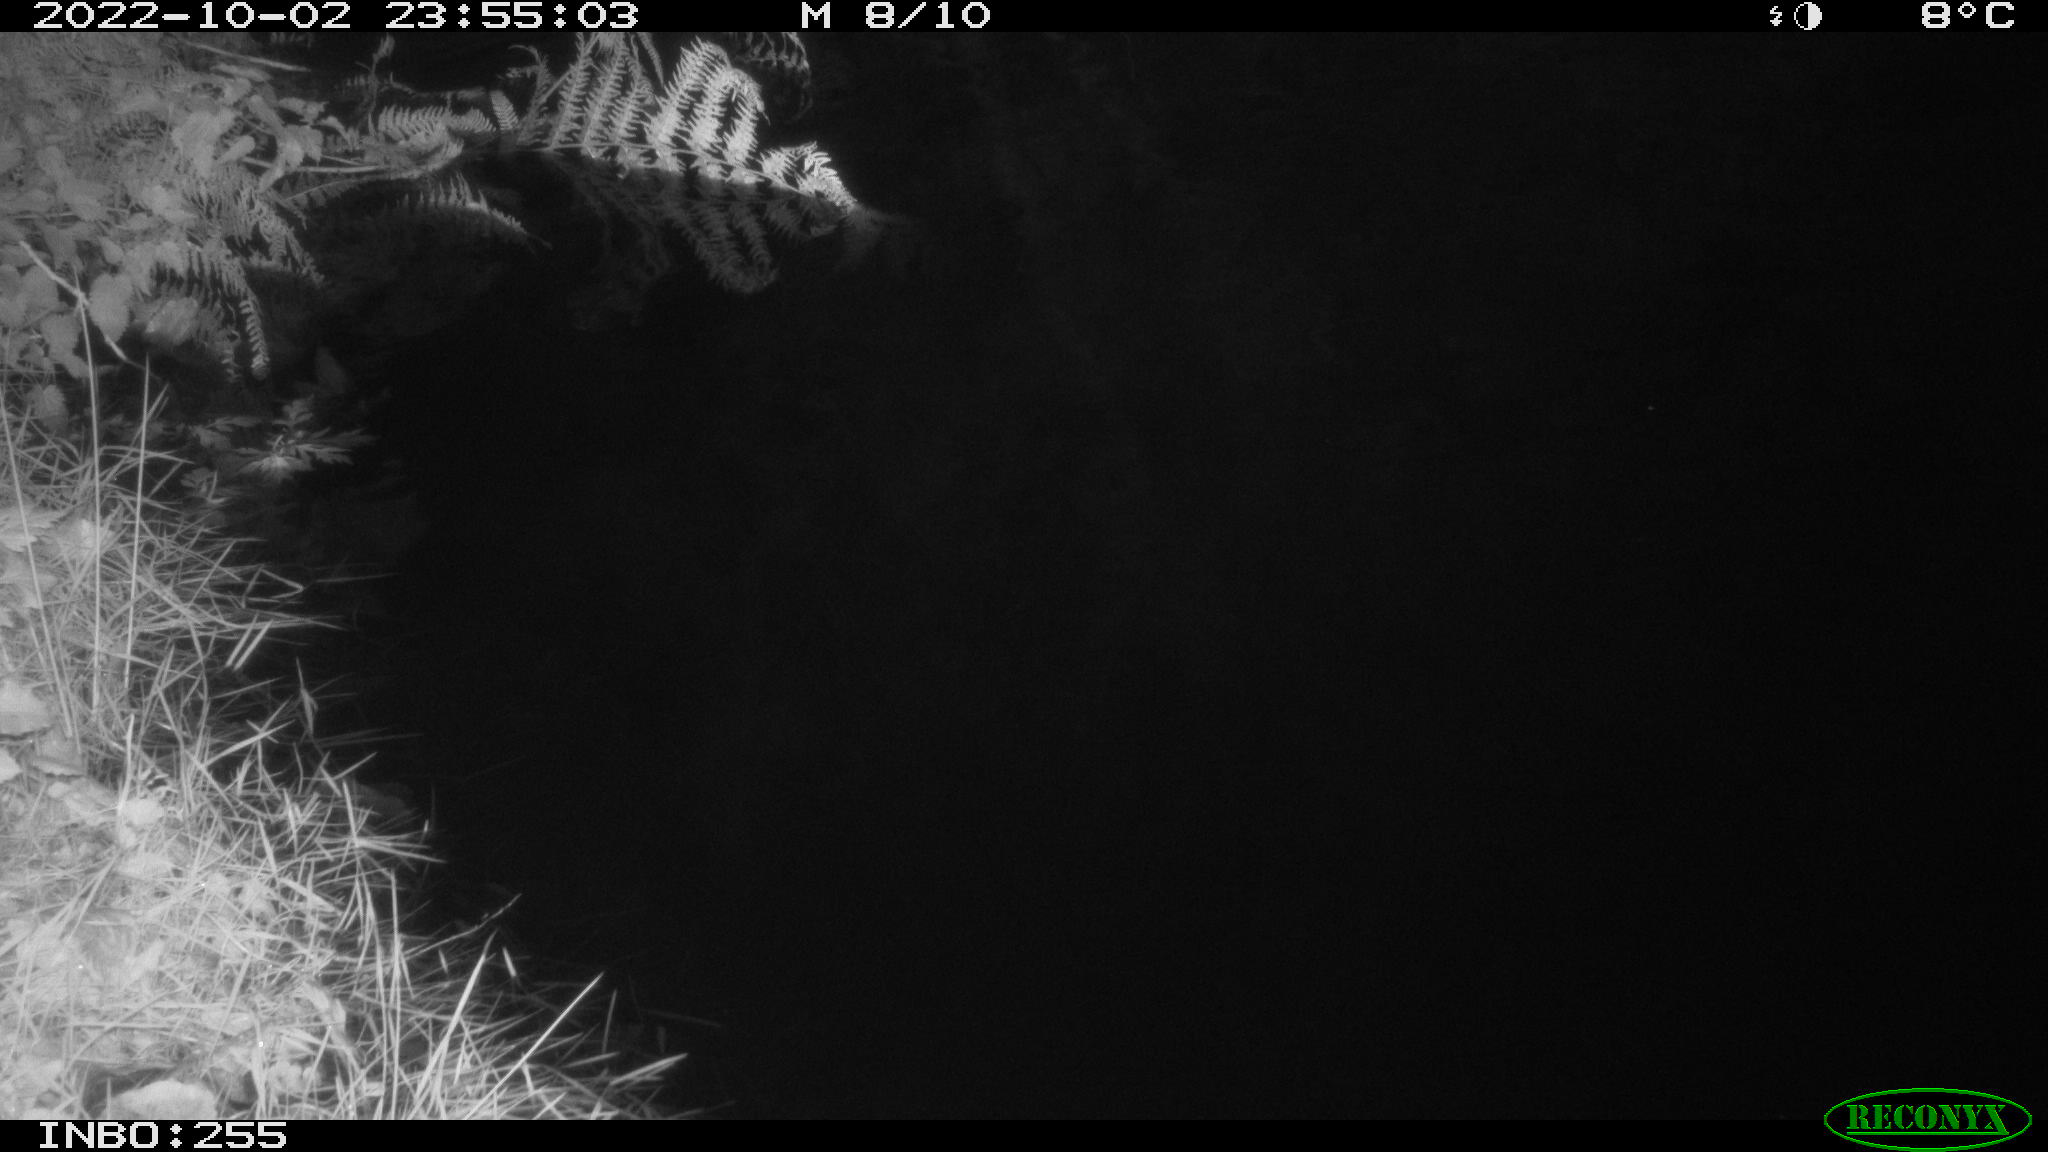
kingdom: Animalia
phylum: Chordata
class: Aves
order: Anseriformes
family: Anatidae
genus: Anas
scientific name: Anas platyrhynchos
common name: Mallard
